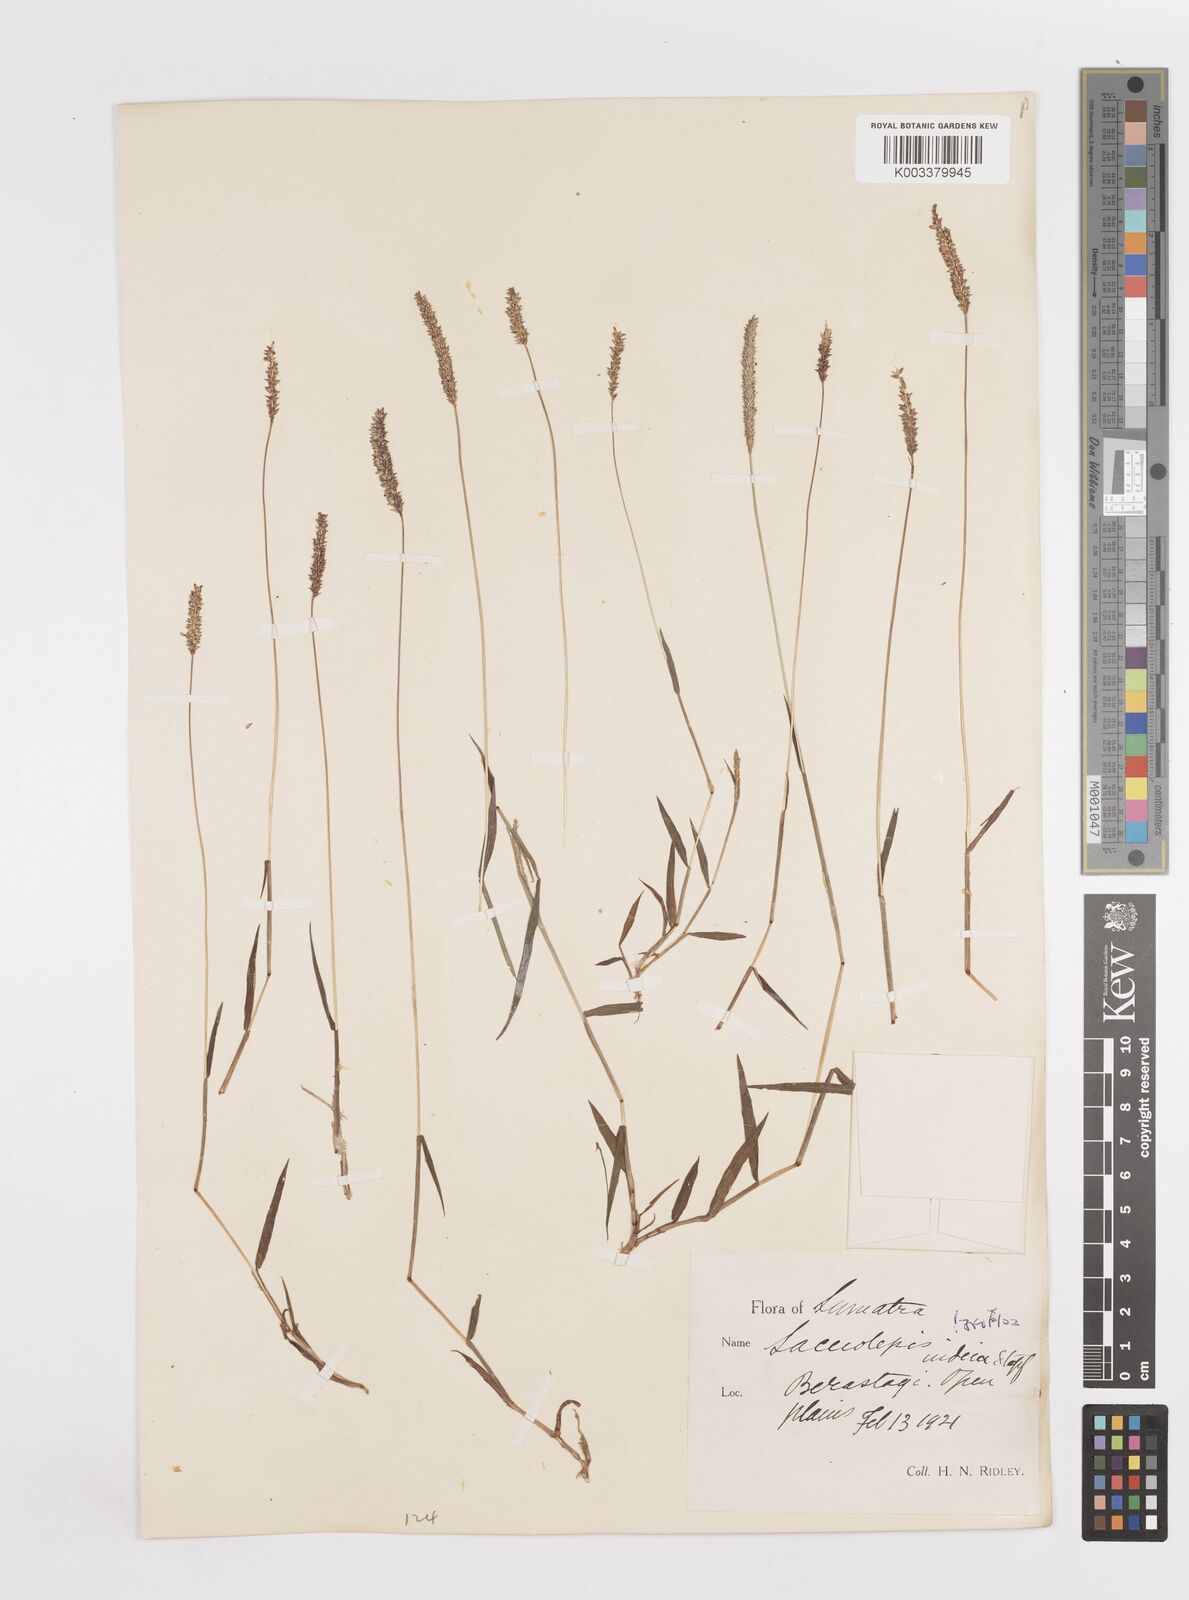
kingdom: Plantae
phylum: Tracheophyta
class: Liliopsida
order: Poales
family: Poaceae
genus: Sacciolepis
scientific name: Sacciolepis indica
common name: Glenwoodgrass
